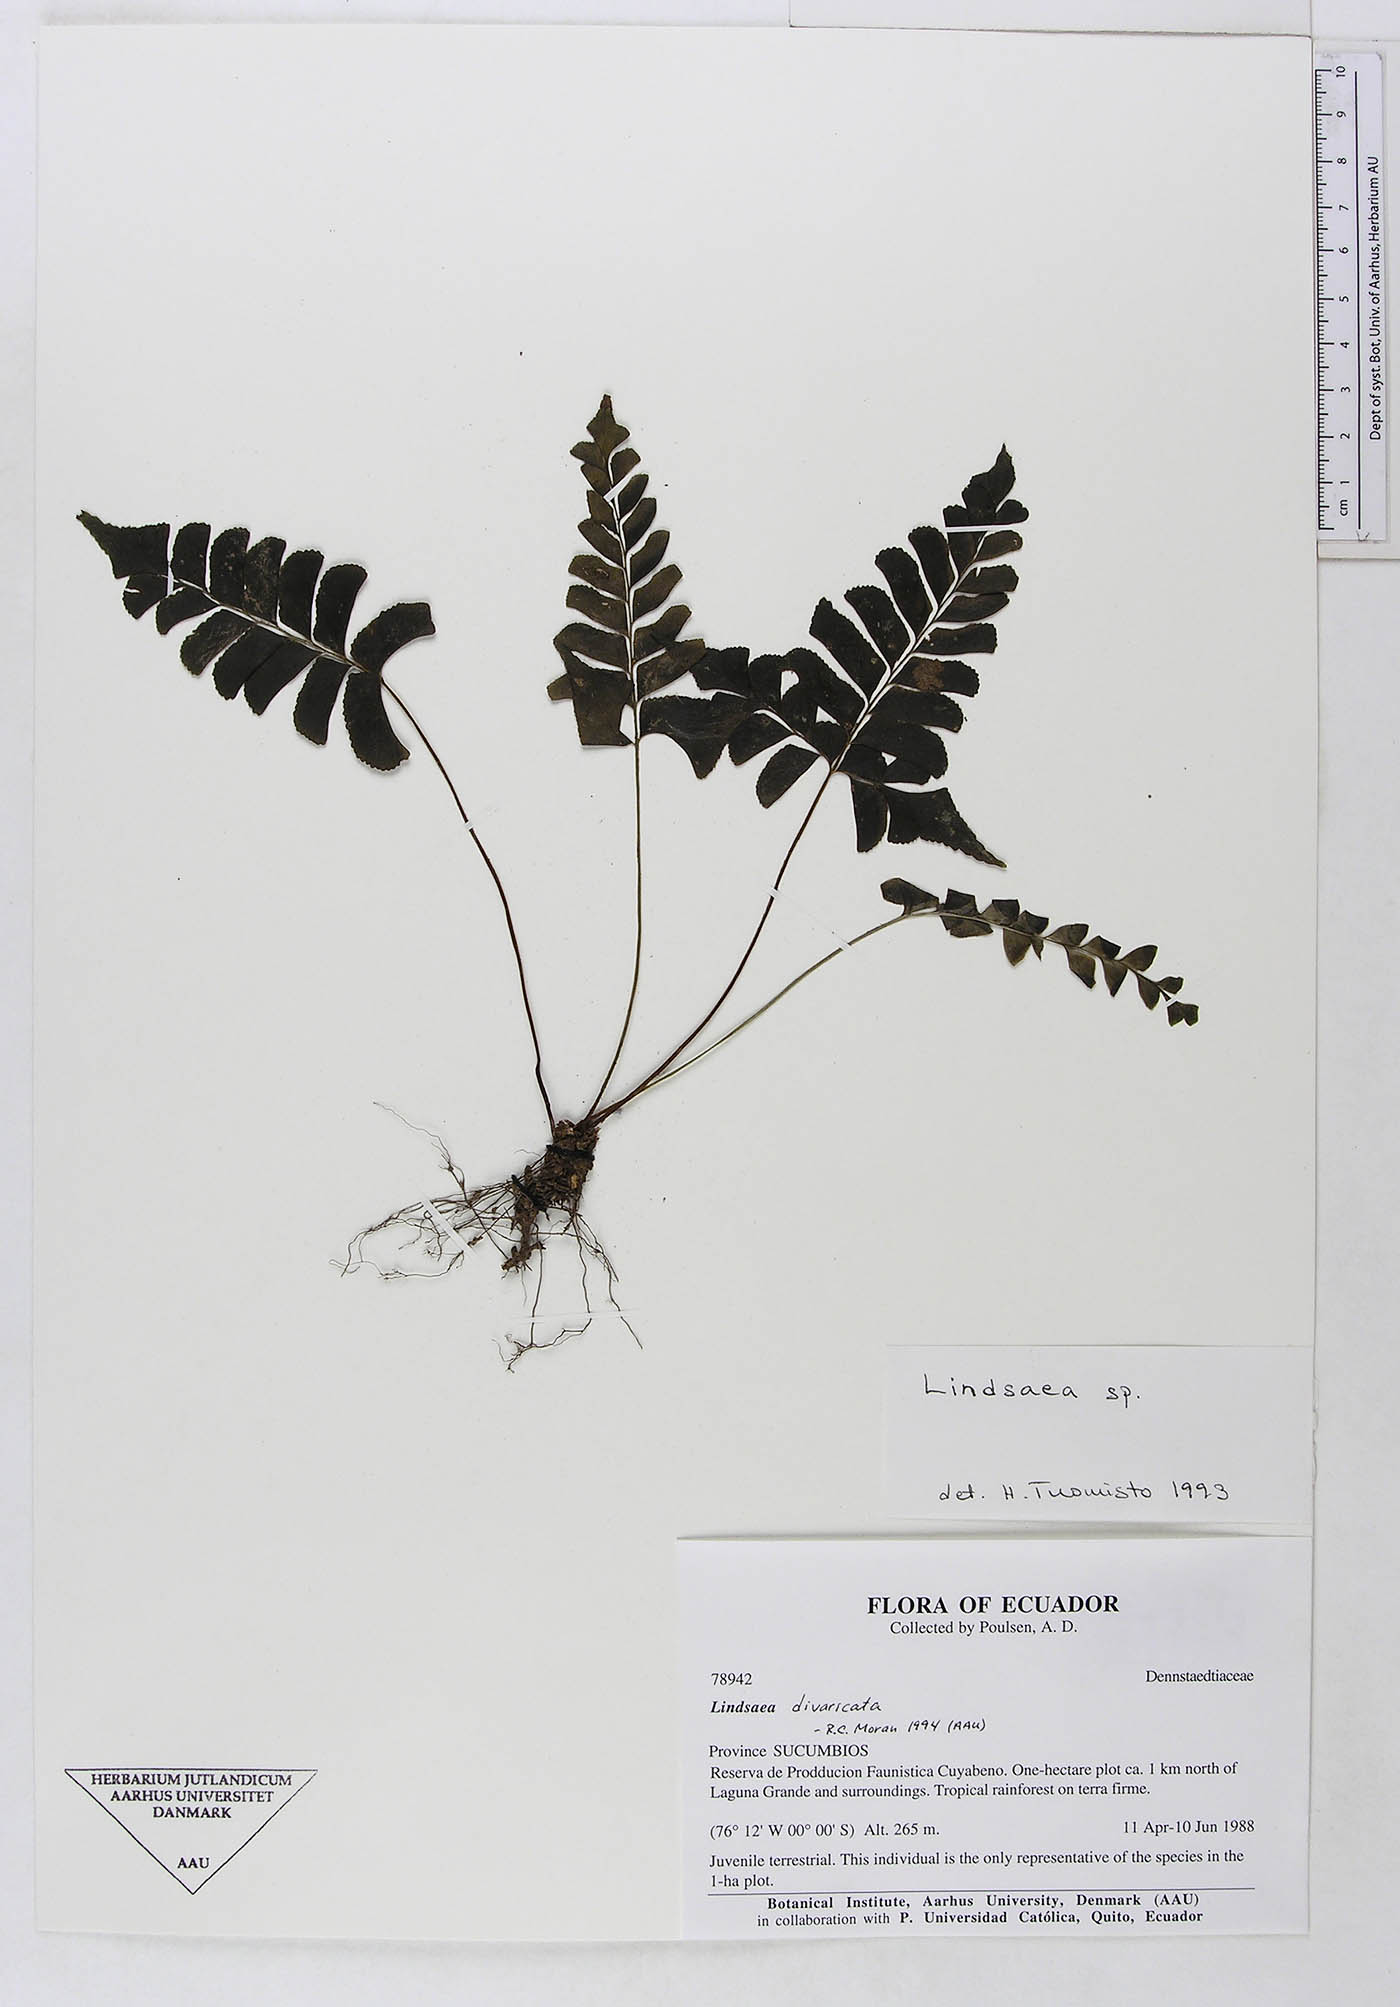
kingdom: Plantae
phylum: Tracheophyta
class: Polypodiopsida
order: Polypodiales
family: Dennstaedtiaceae
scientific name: Dennstaedtiaceae
